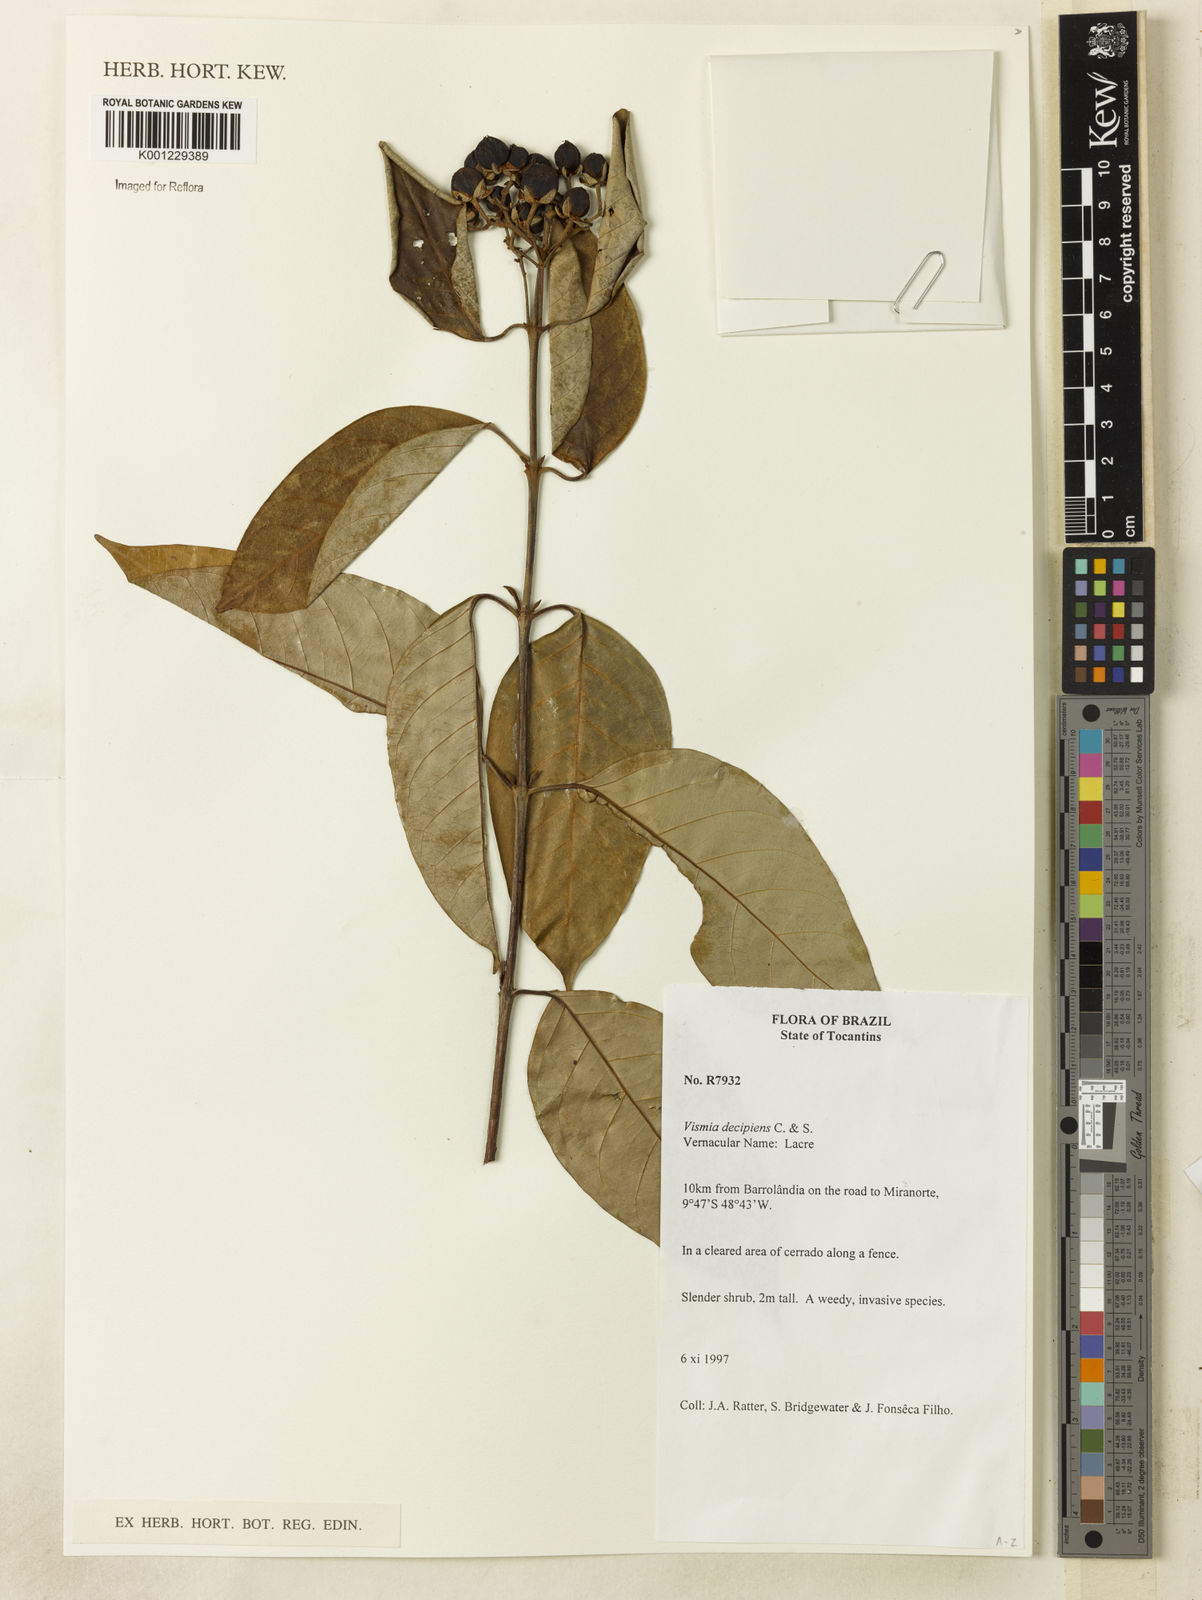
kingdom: Plantae
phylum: Tracheophyta
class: Magnoliopsida
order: Malpighiales
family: Hypericaceae
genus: Vismia
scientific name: Vismia pentagyna
